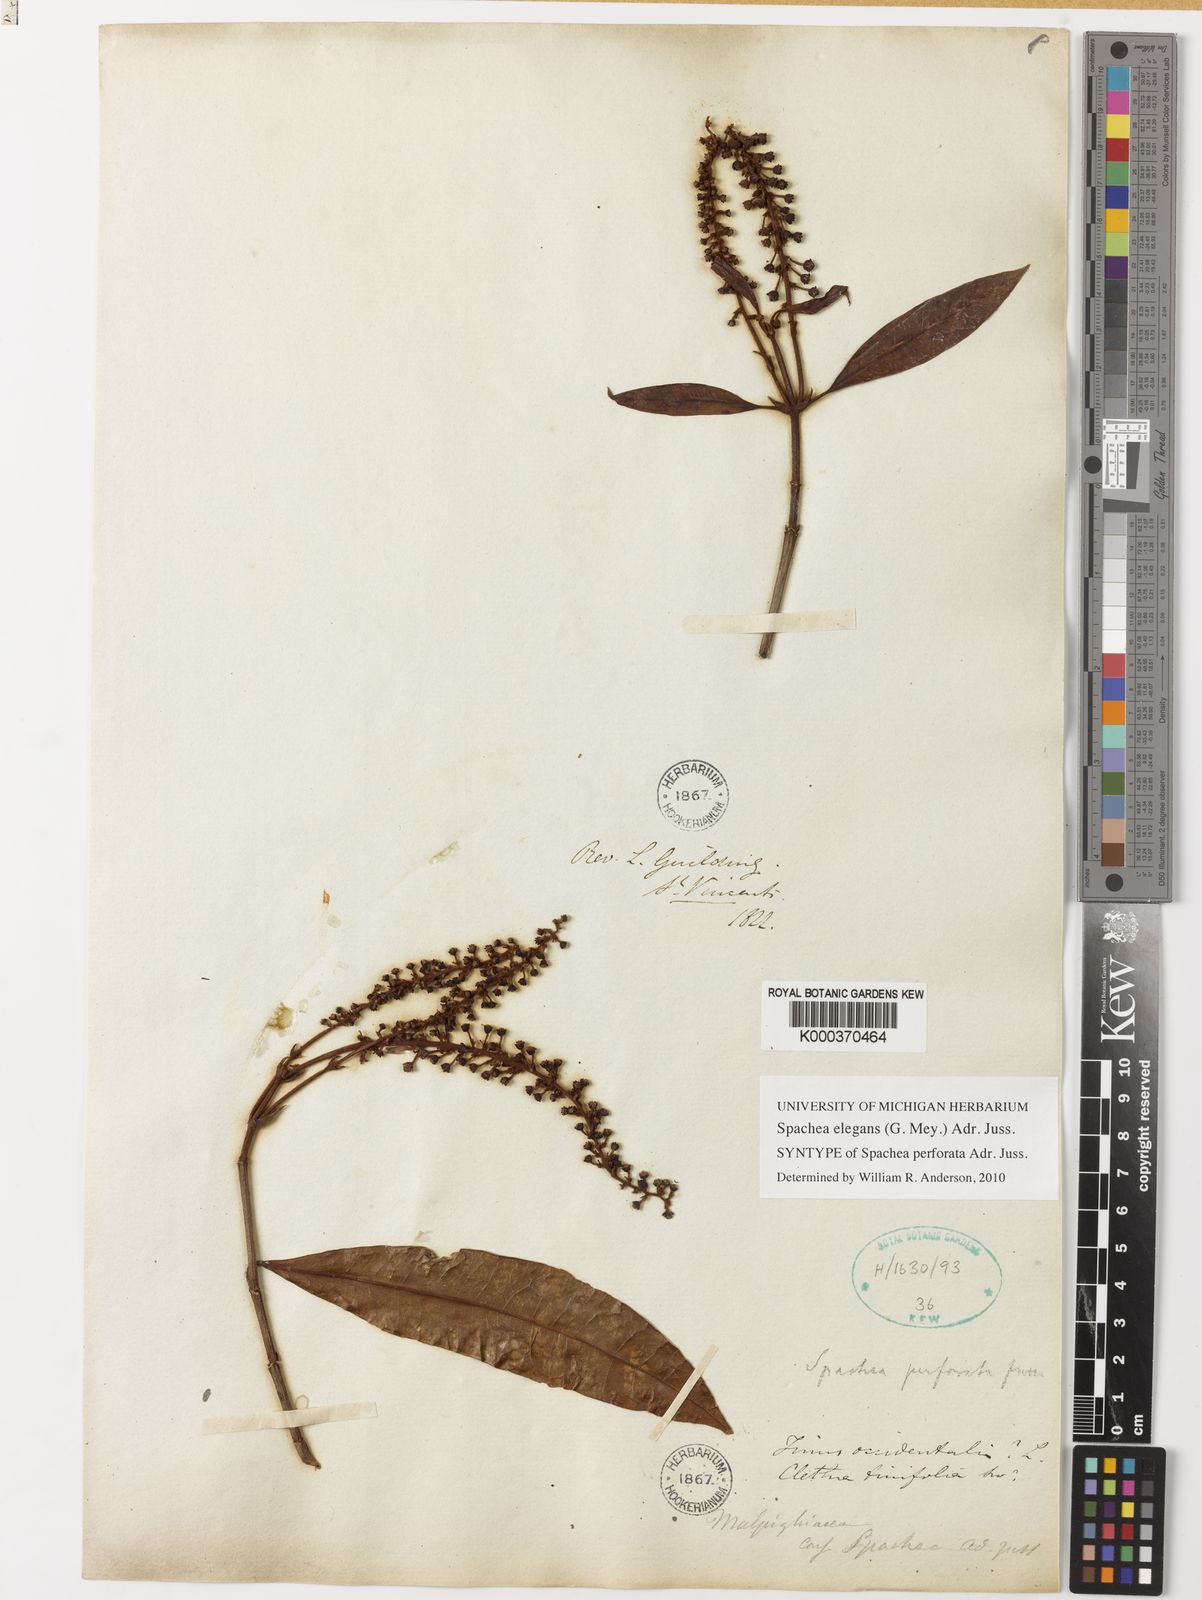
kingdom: Plantae
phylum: Tracheophyta
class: Magnoliopsida
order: Malpighiales
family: Malpighiaceae
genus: Spachea
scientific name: Spachea elegans
